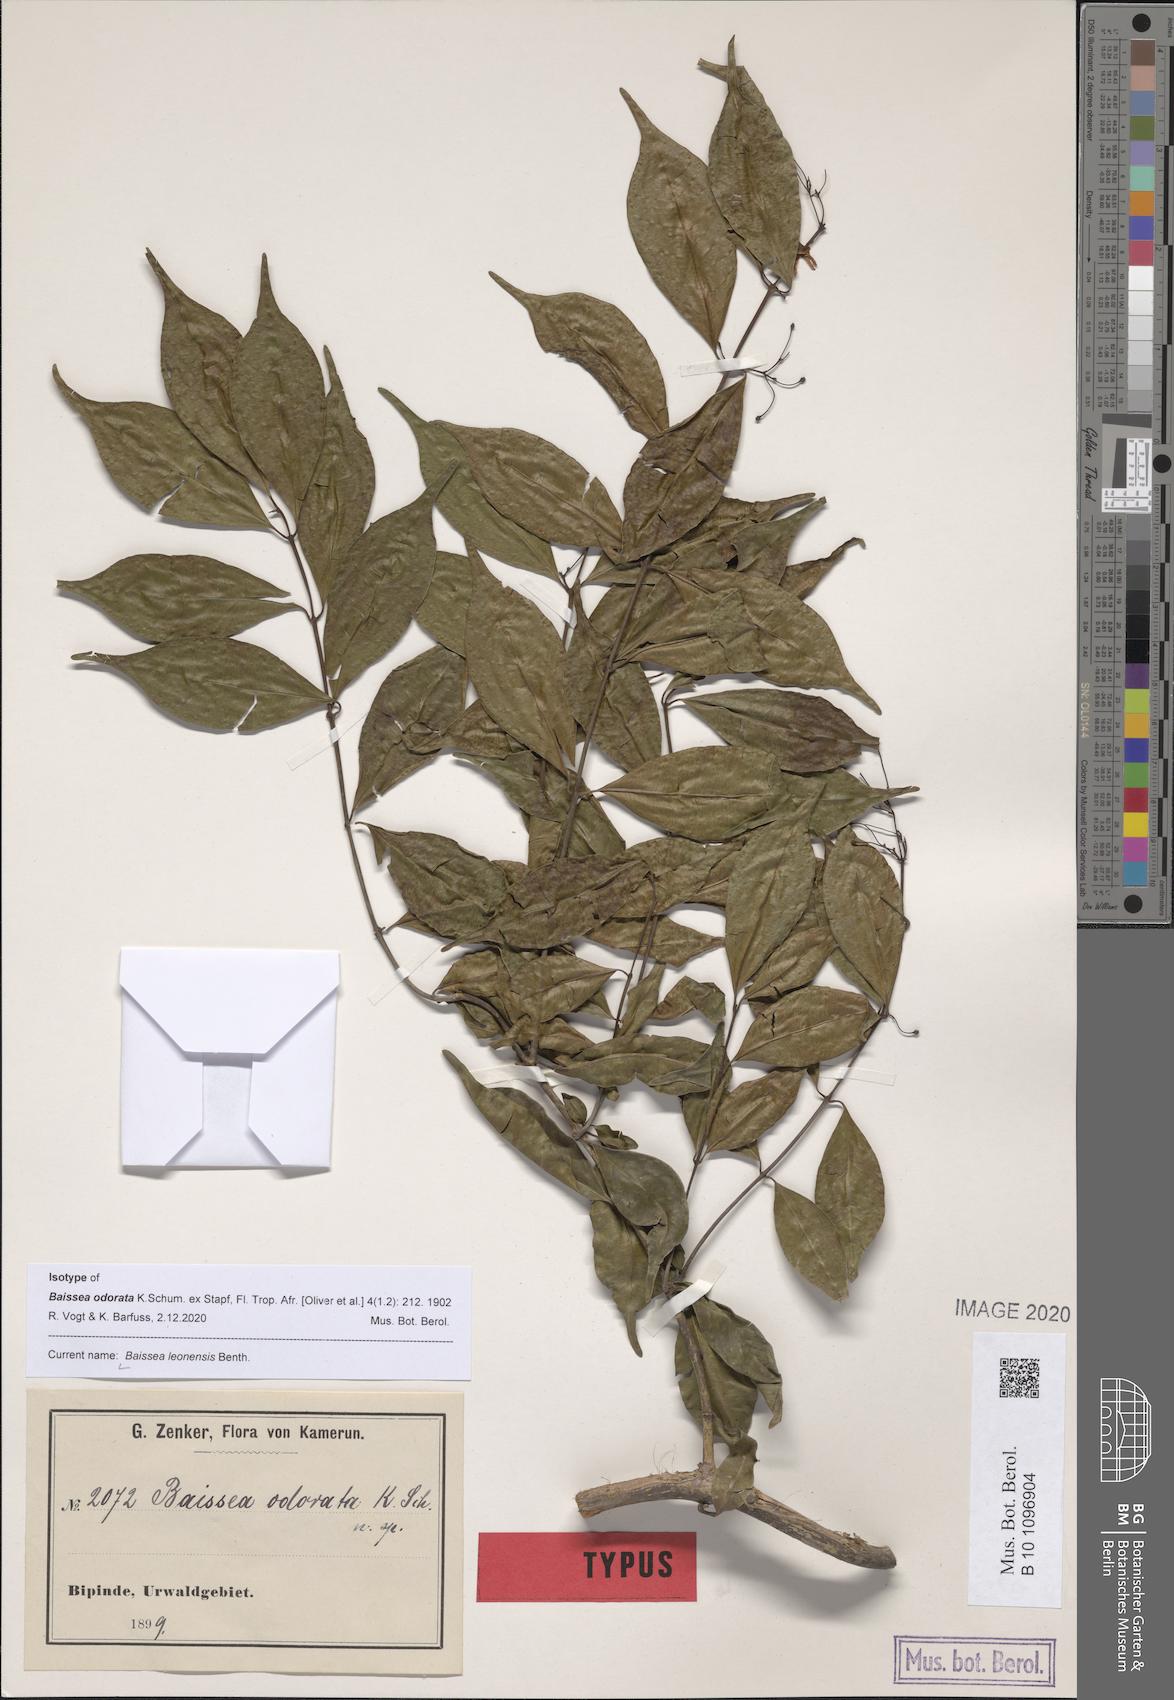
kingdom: Plantae
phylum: Tracheophyta
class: Magnoliopsida
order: Gentianales
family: Apocynaceae
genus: Baissea
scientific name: Baissea leonensis
